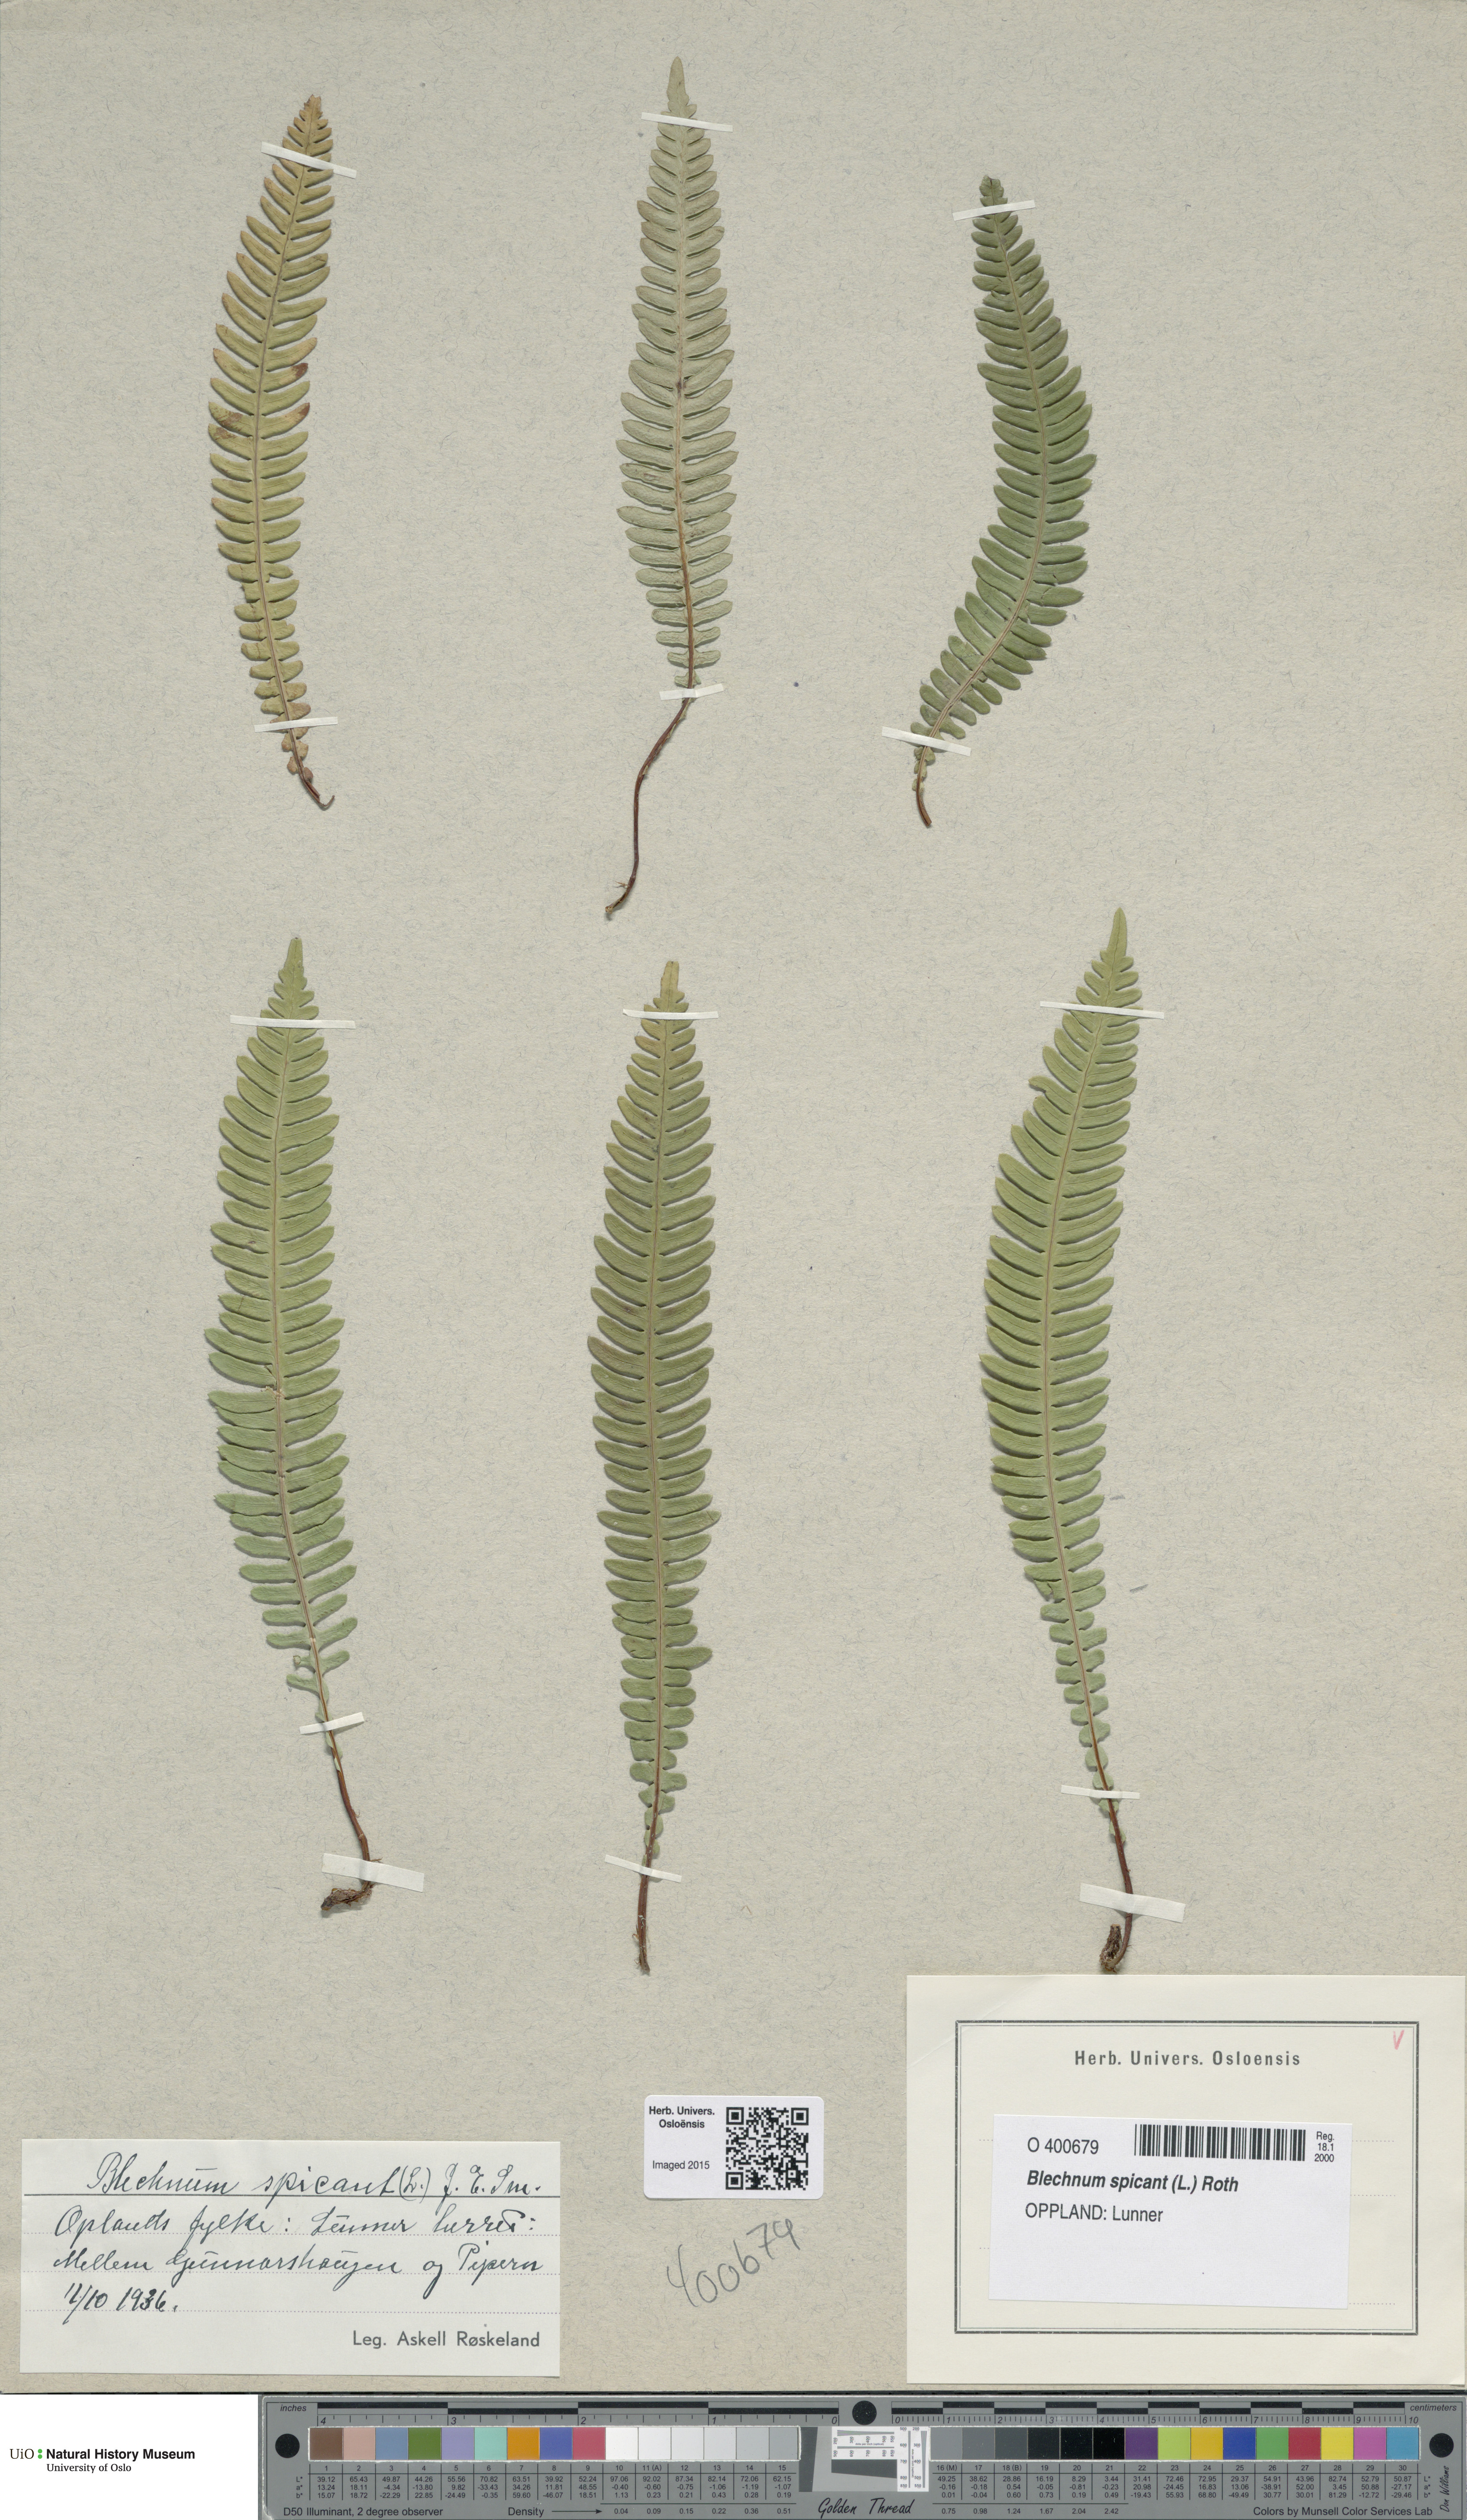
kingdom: Plantae
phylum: Tracheophyta
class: Polypodiopsida
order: Polypodiales
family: Blechnaceae
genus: Struthiopteris
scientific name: Struthiopteris spicant
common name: Deer fern
